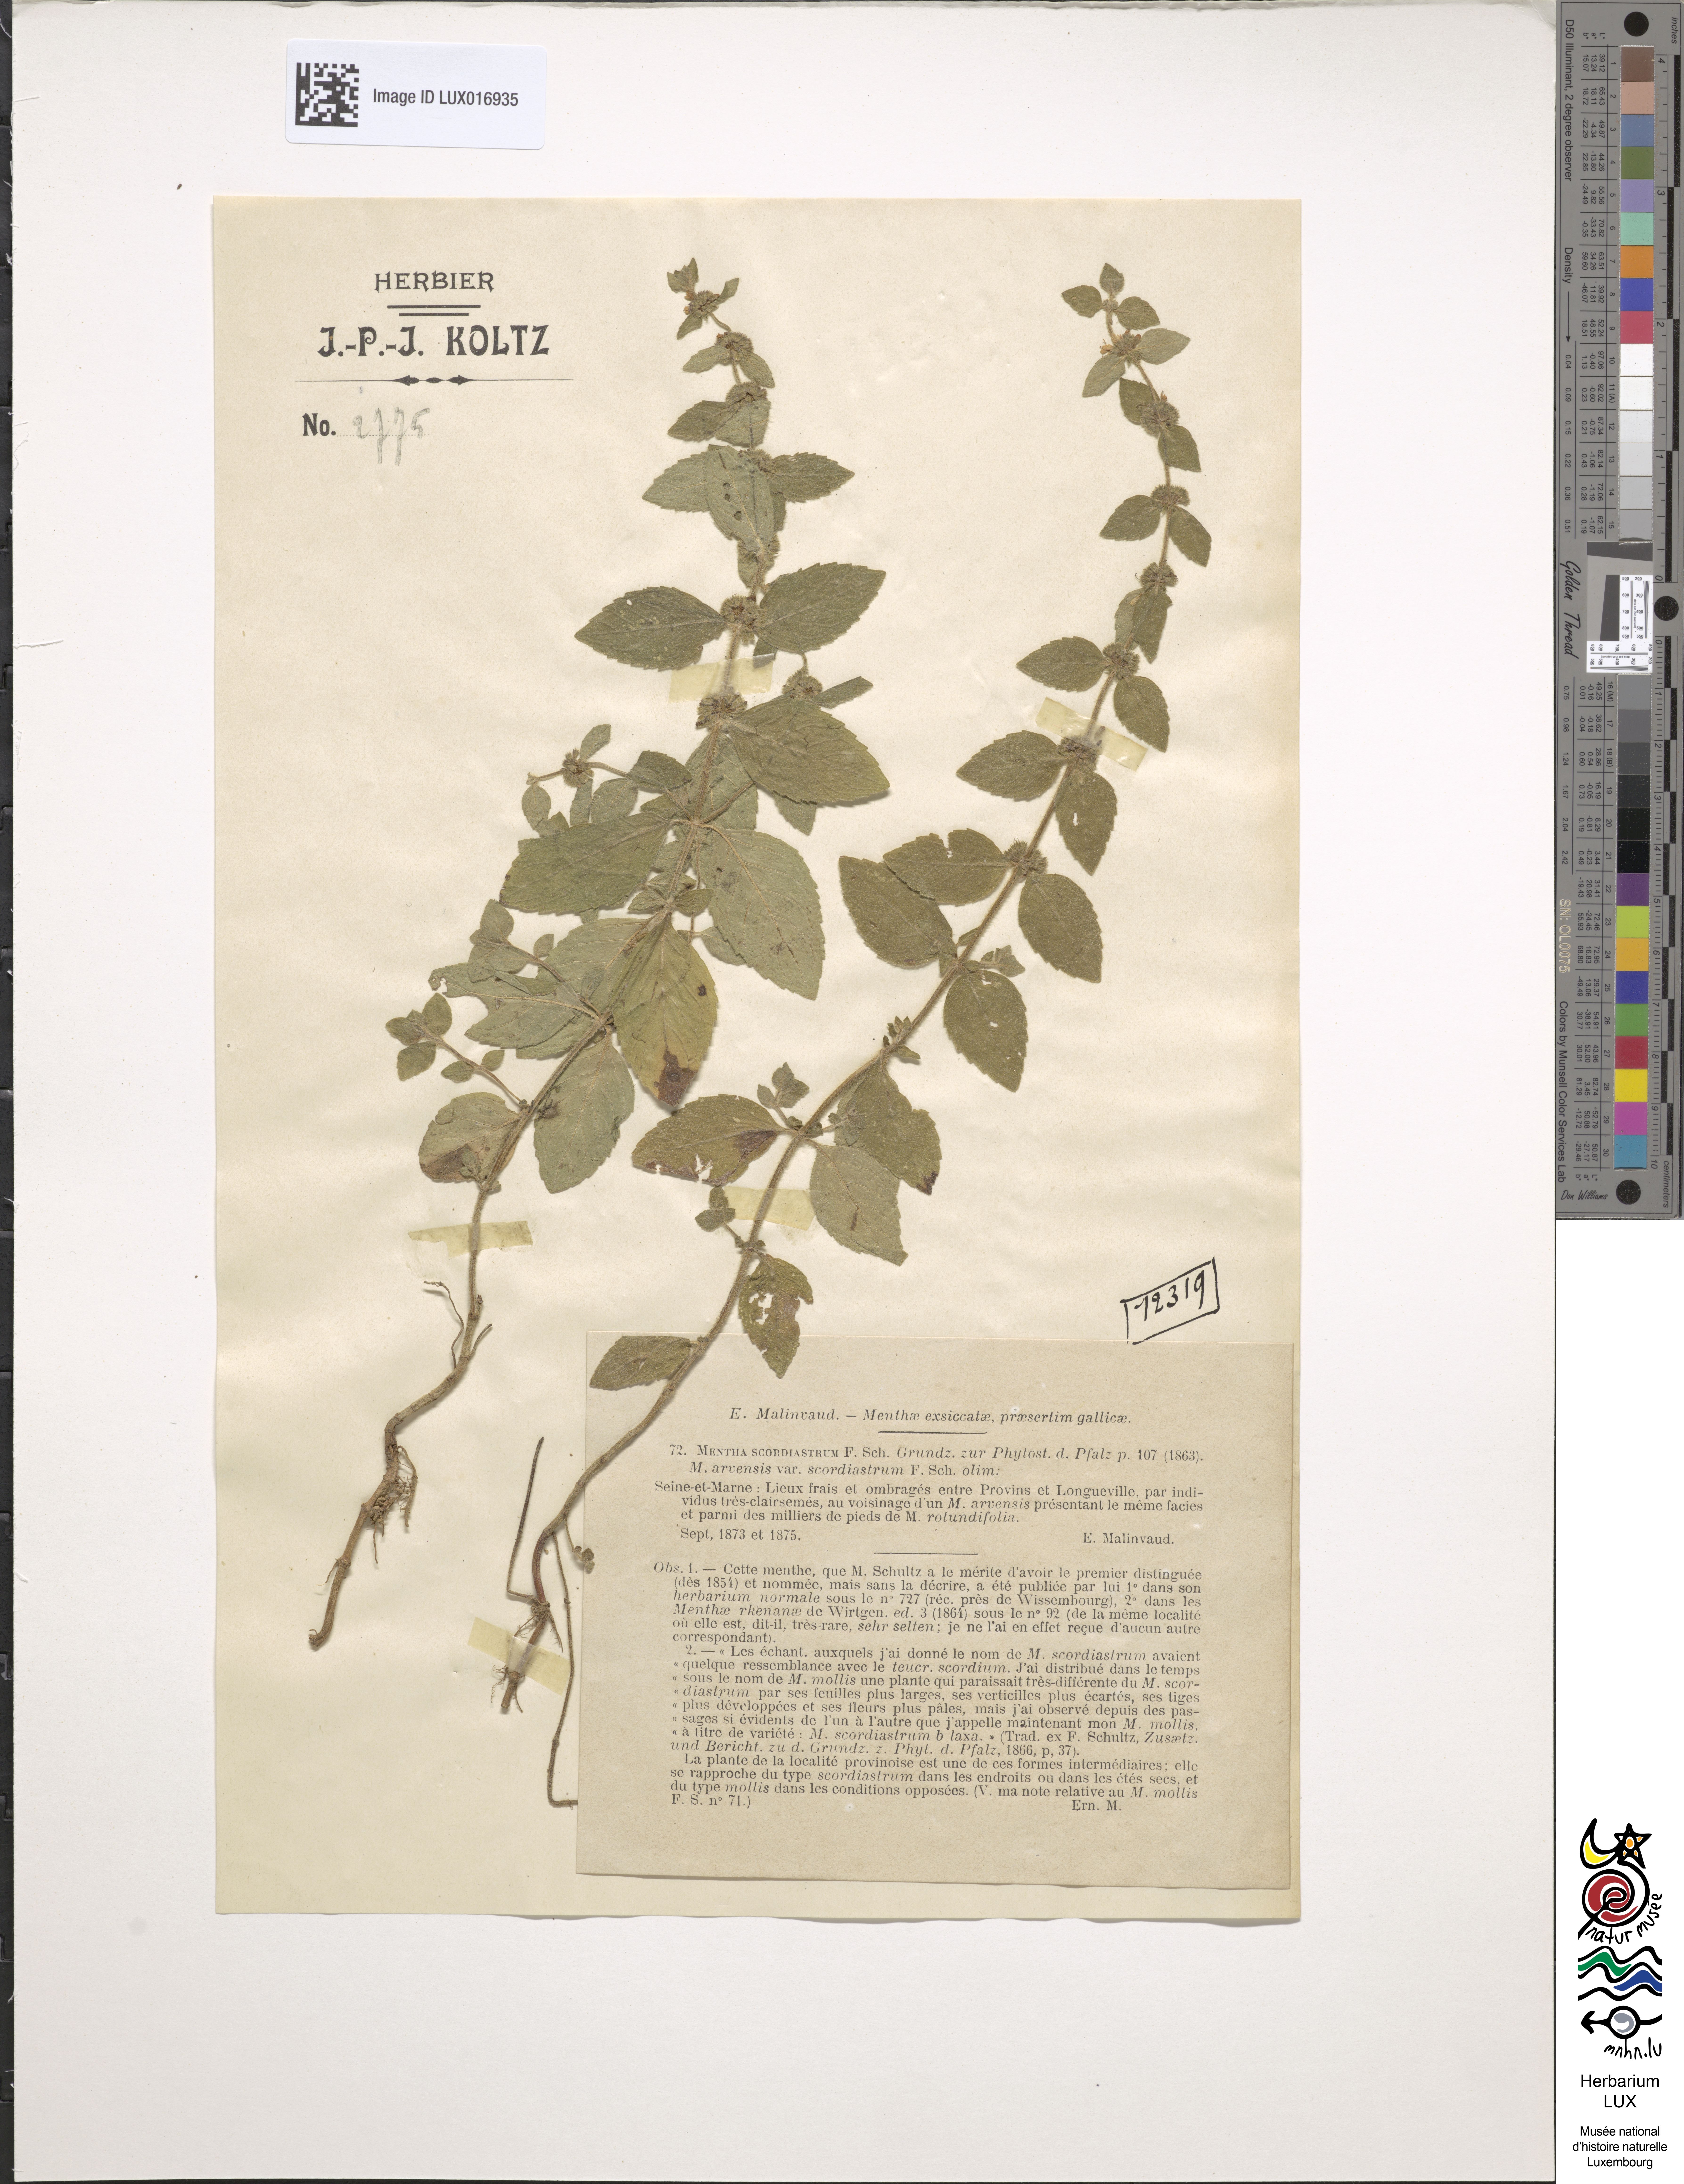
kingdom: Plantae
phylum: Tracheophyta
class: Magnoliopsida
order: Lamiales
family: Lamiaceae
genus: Mentha
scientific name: Mentha carinthiaca
